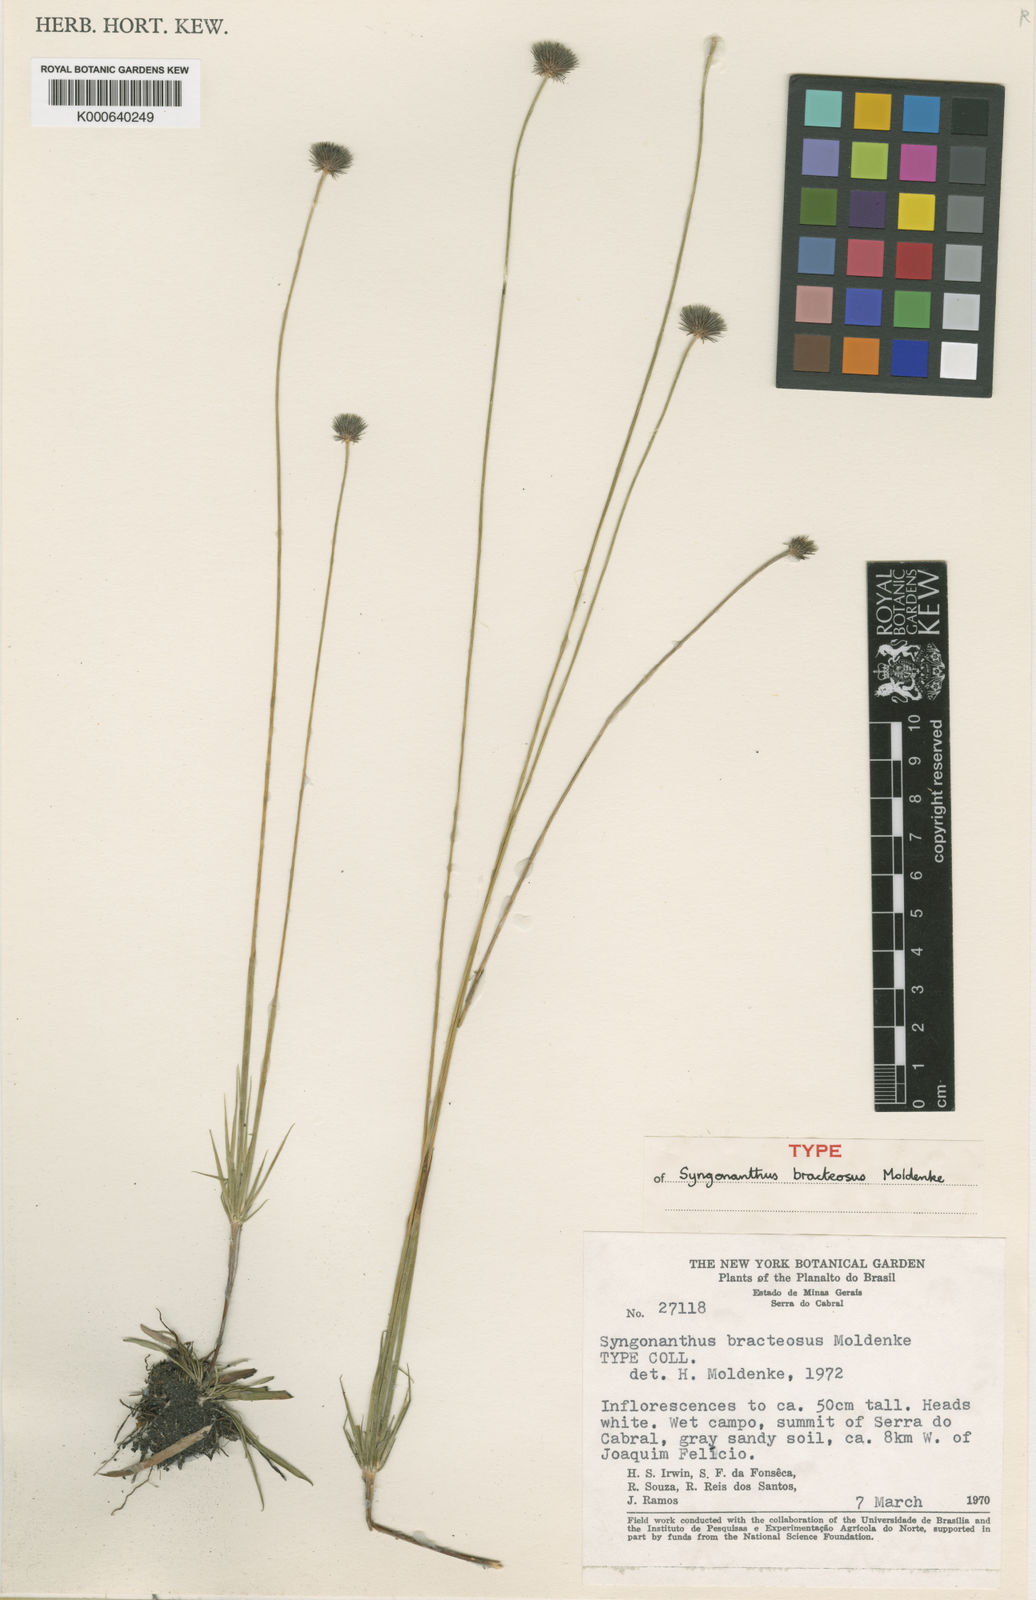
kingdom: Plantae
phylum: Tracheophyta
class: Liliopsida
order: Poales
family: Eriocaulaceae
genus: Syngonanthus
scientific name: Syngonanthus bracteosus
